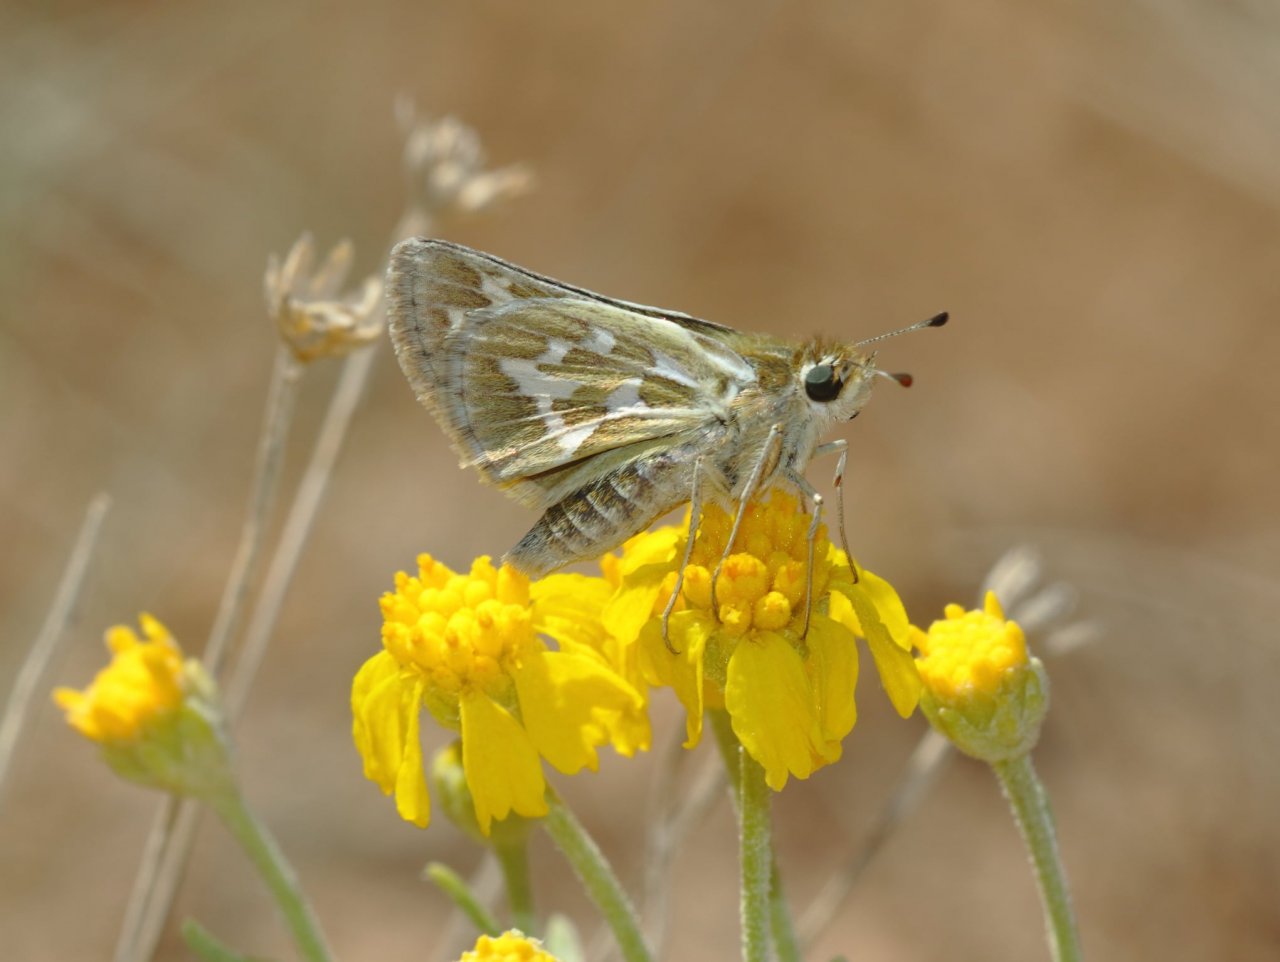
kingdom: Animalia
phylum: Arthropoda
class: Insecta
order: Lepidoptera
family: Hesperiidae
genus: Polites
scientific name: Polites sabuleti
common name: Sandhill Skipper
